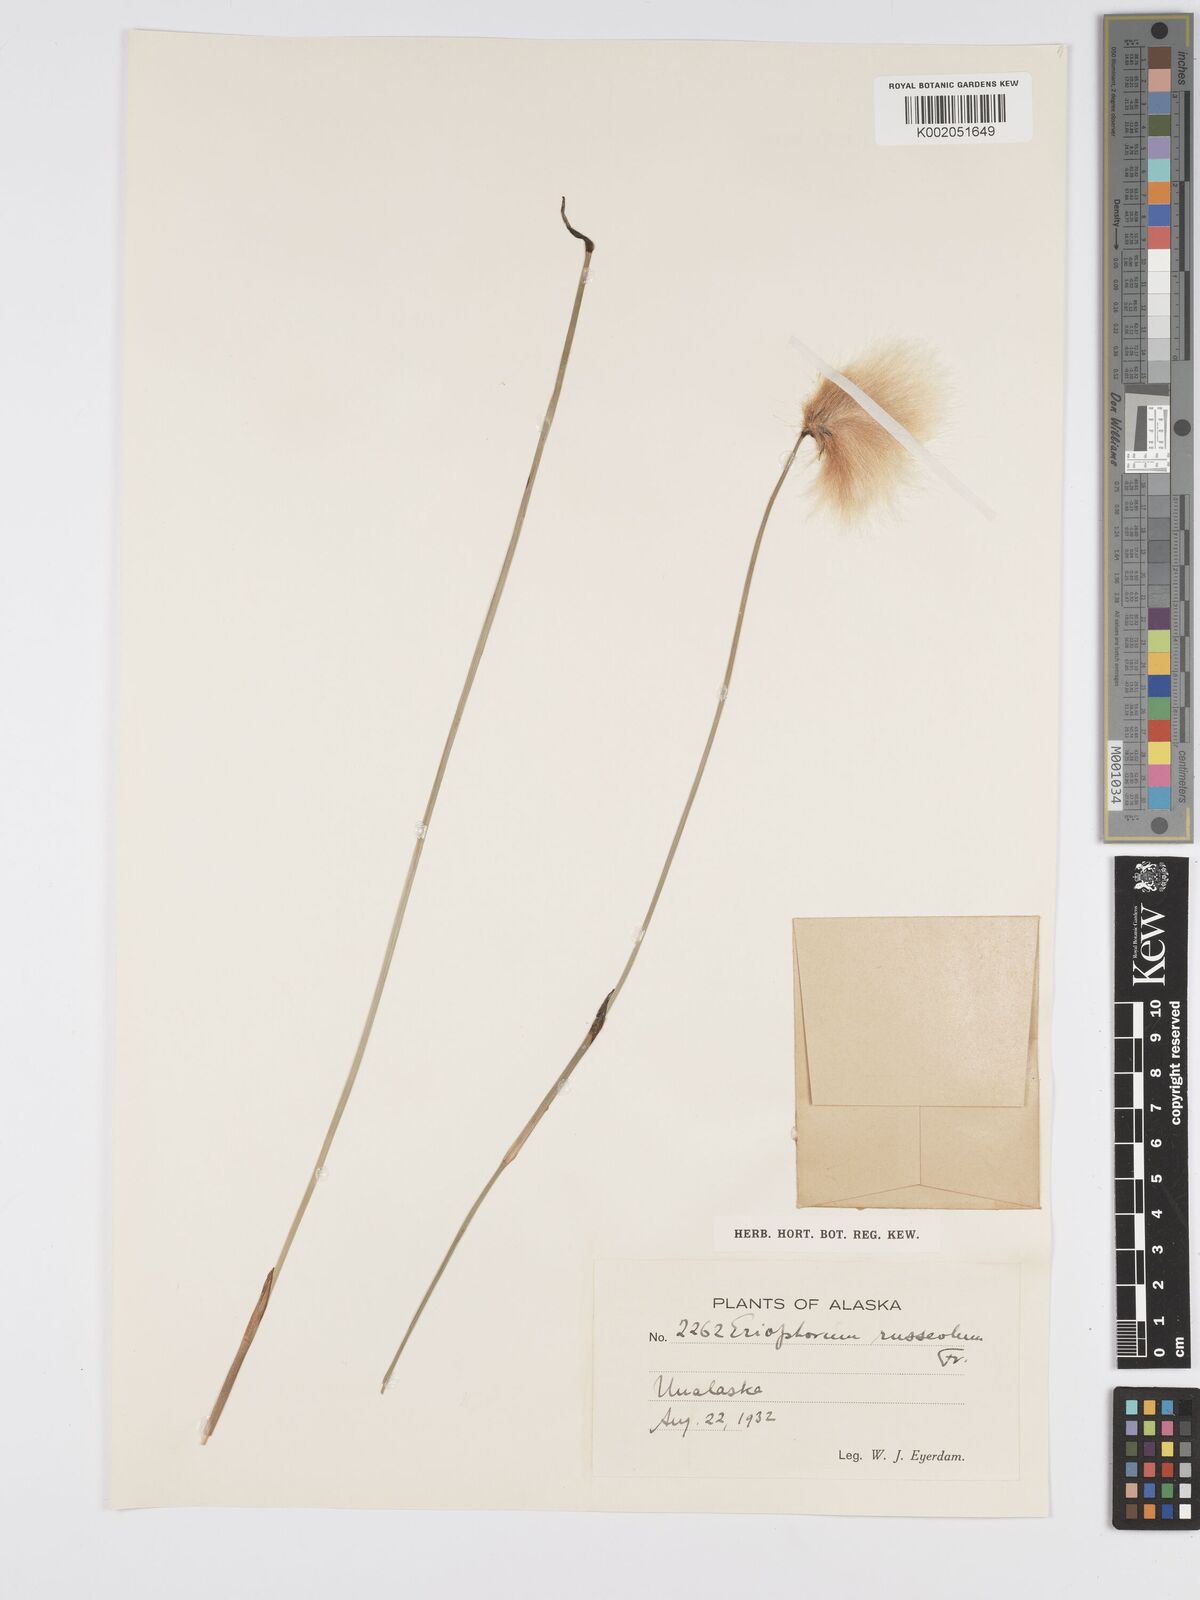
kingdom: Plantae
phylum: Tracheophyta
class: Liliopsida
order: Poales
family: Cyperaceae
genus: Eriophorum
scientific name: Eriophorum chamissonis
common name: Chamisso's cottongrass
